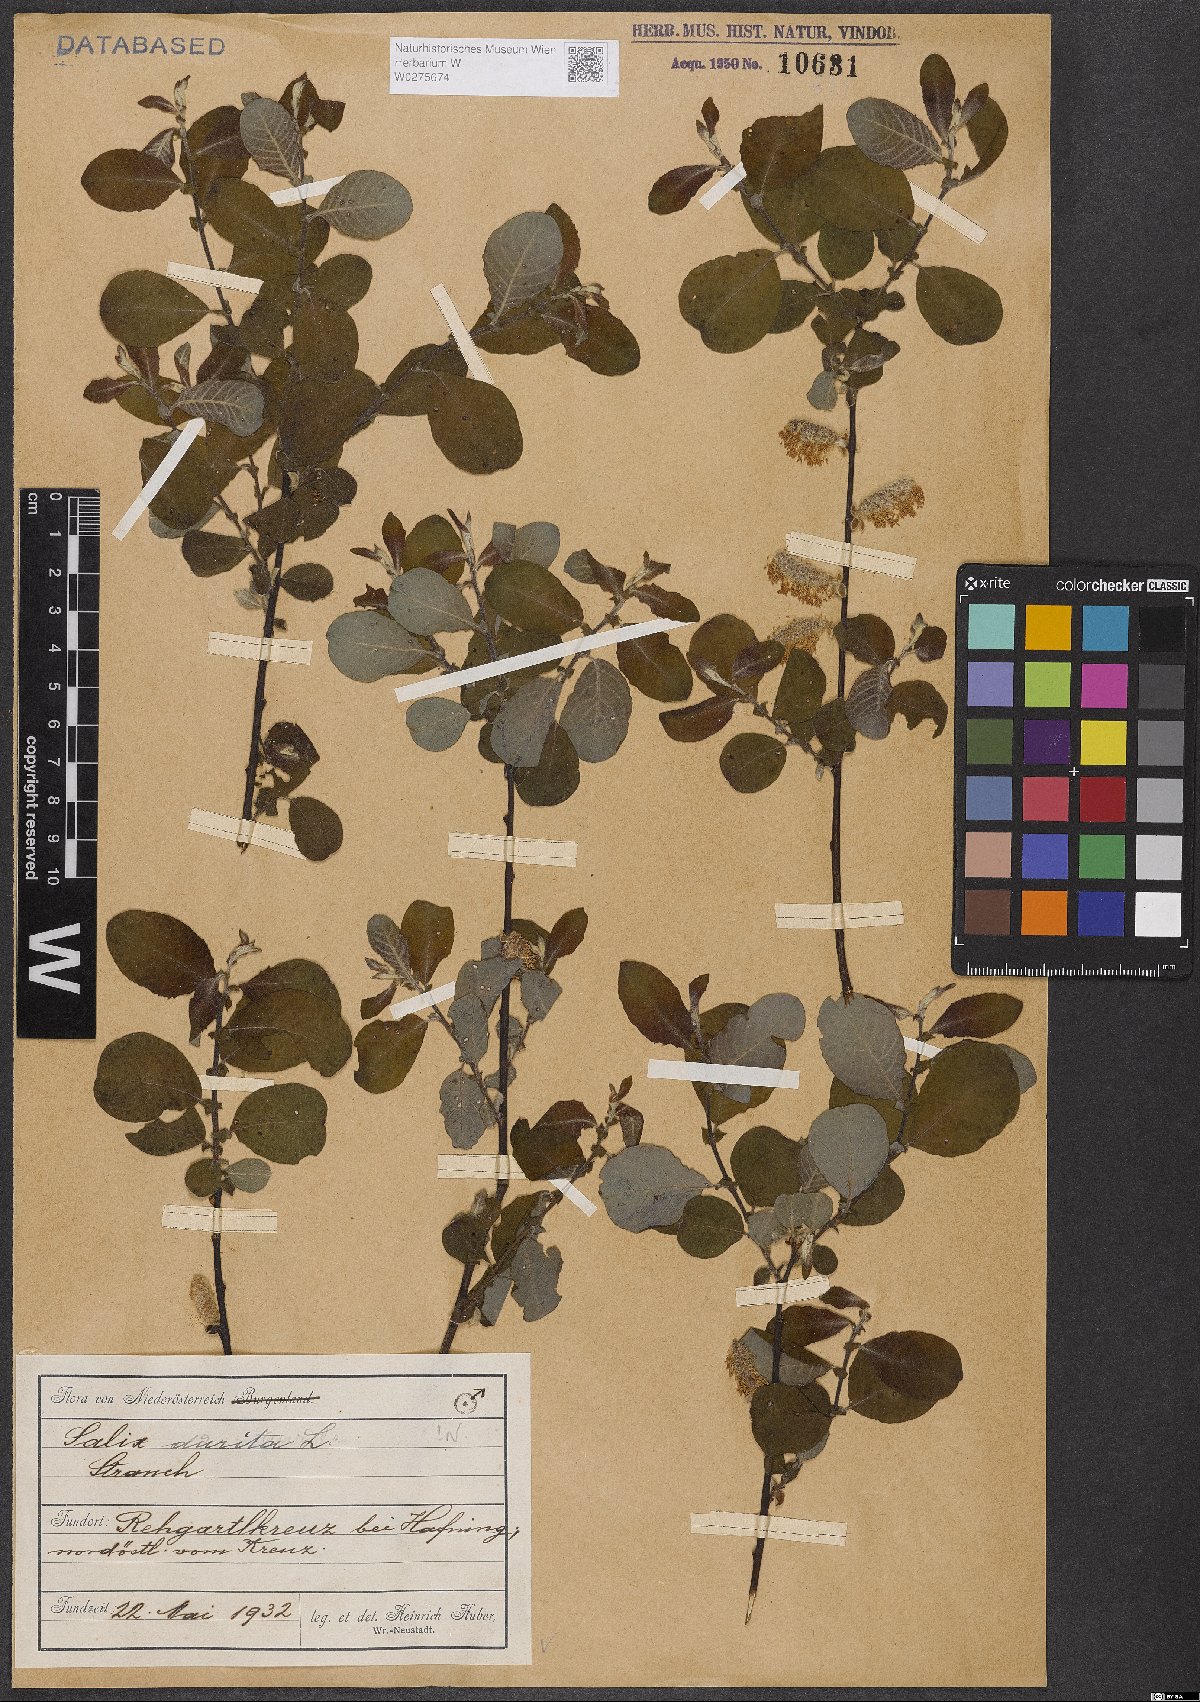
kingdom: Plantae
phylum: Tracheophyta
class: Magnoliopsida
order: Malpighiales
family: Salicaceae
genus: Salix
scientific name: Salix aurita
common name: Eared willow
